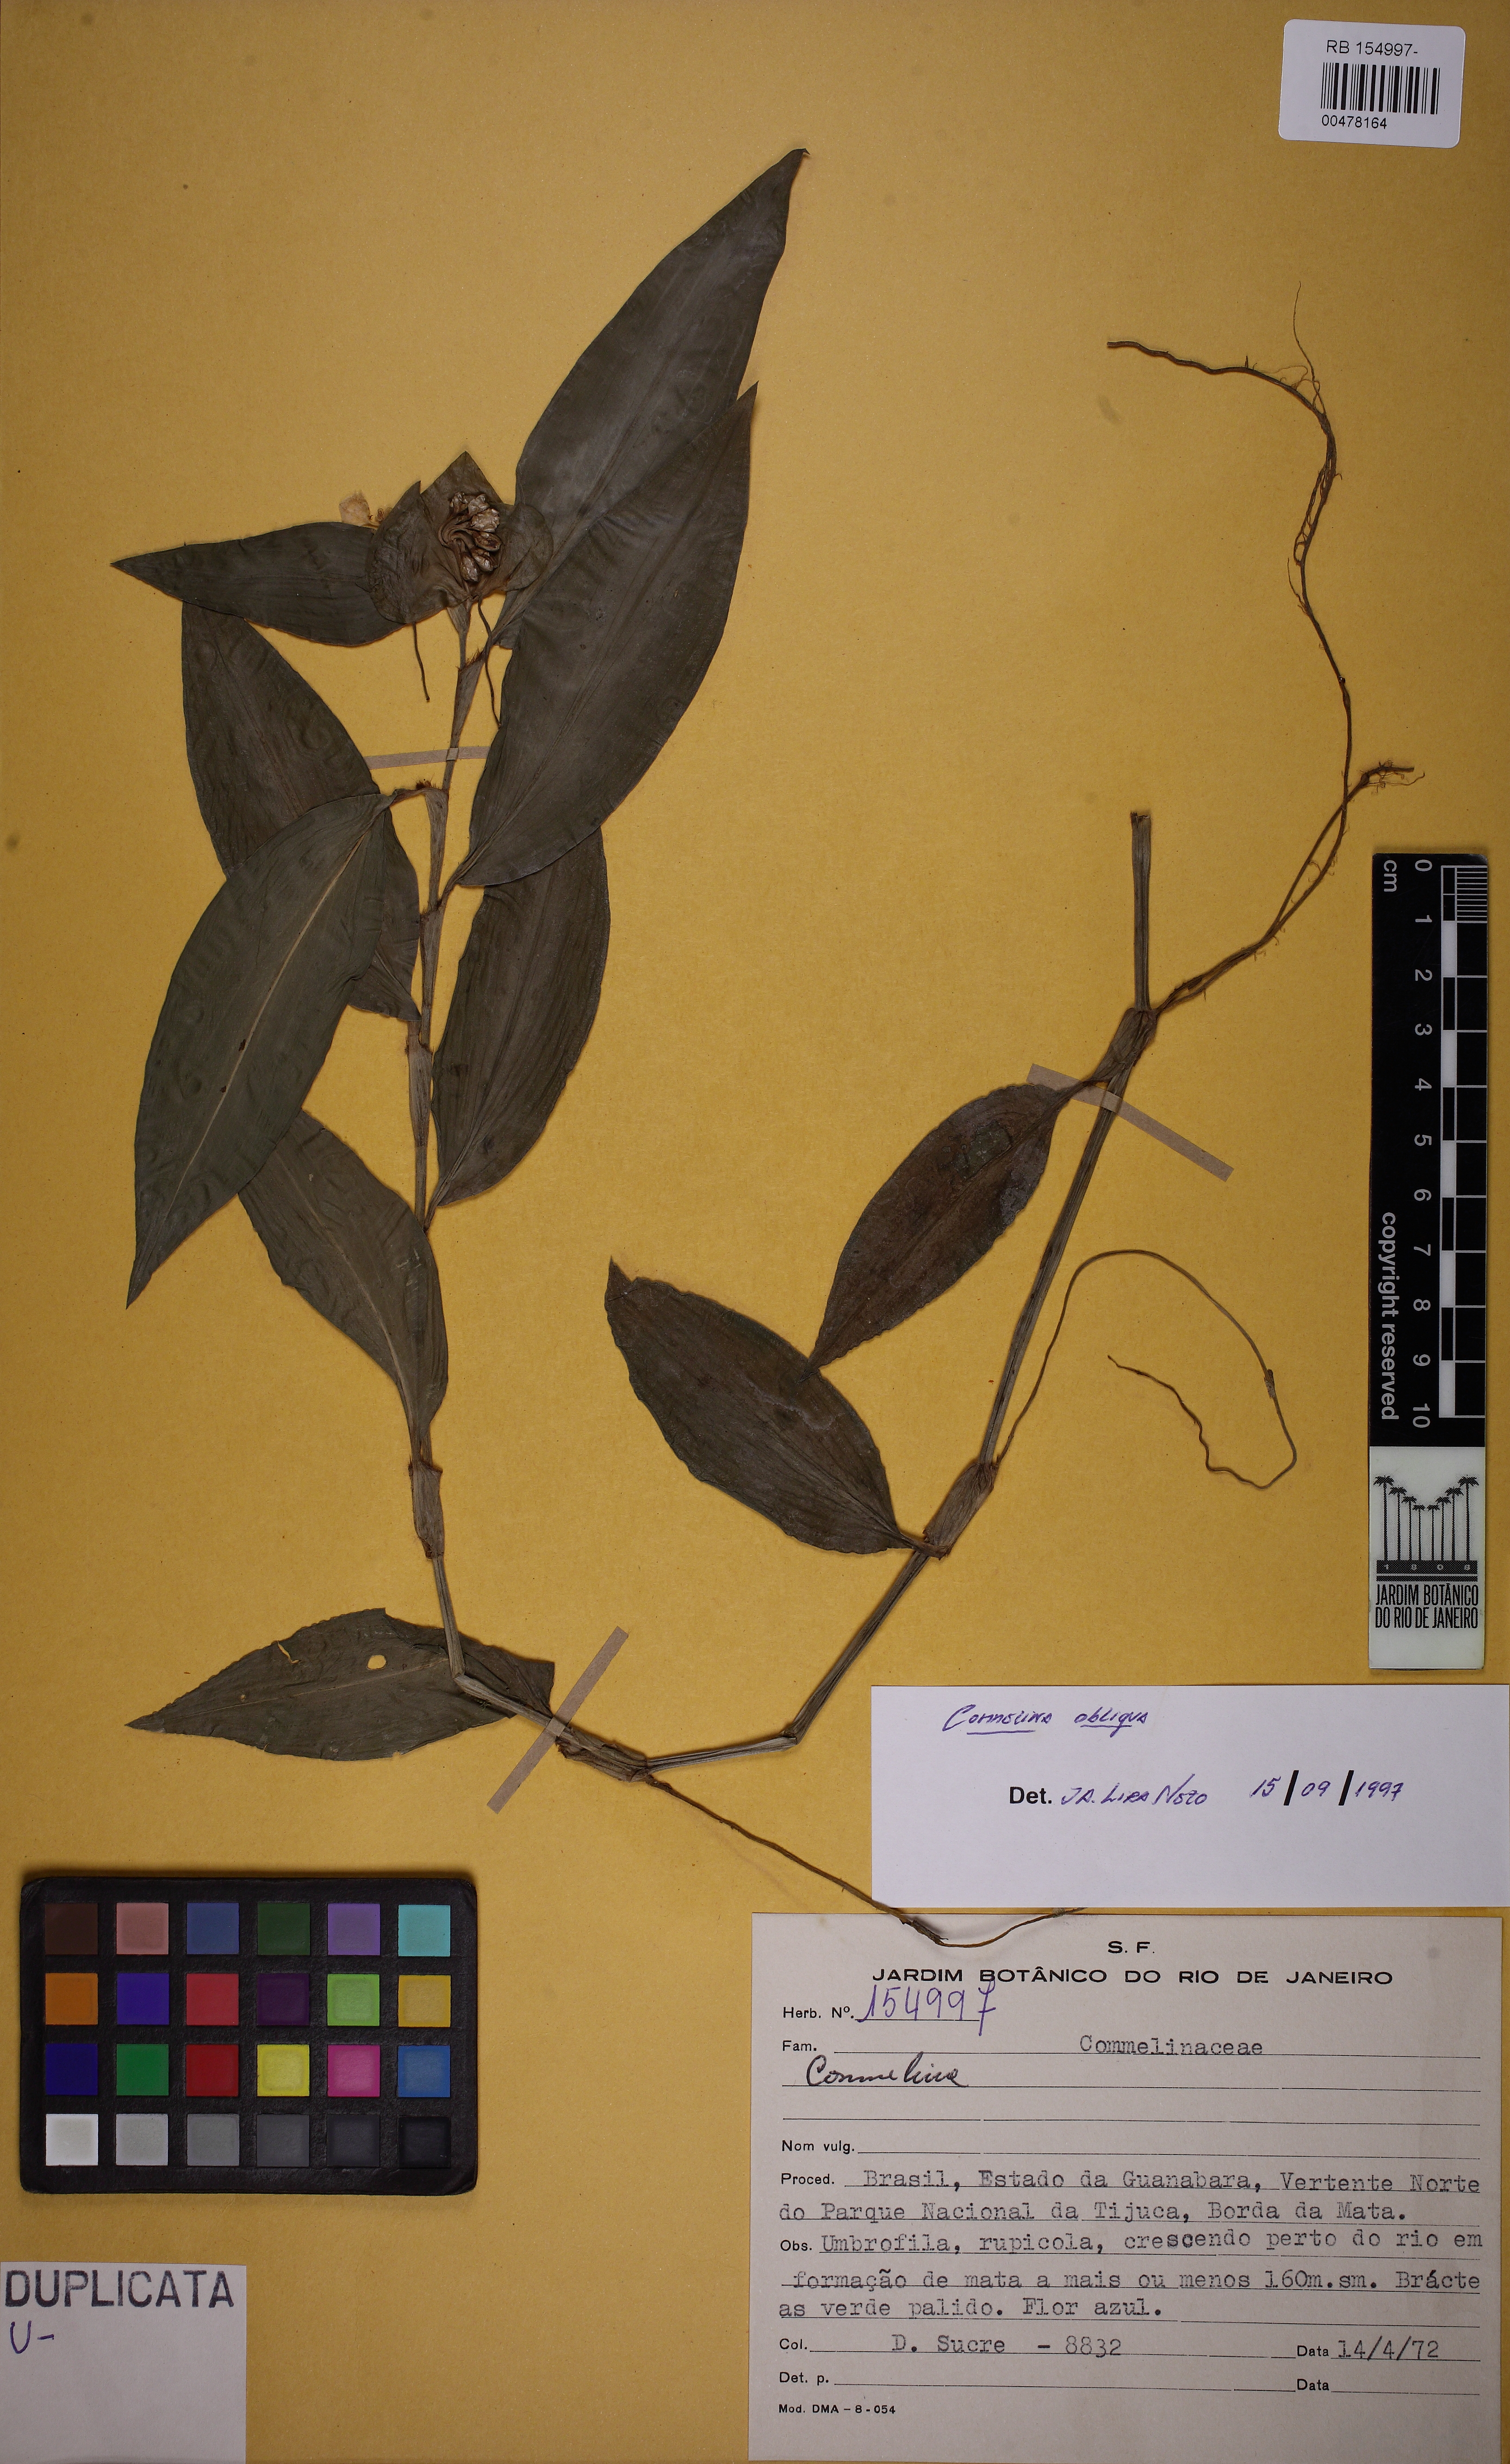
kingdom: Plantae
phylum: Tracheophyta
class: Liliopsida
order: Commelinales
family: Commelinaceae
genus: Commelina
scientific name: Commelina obliqua
